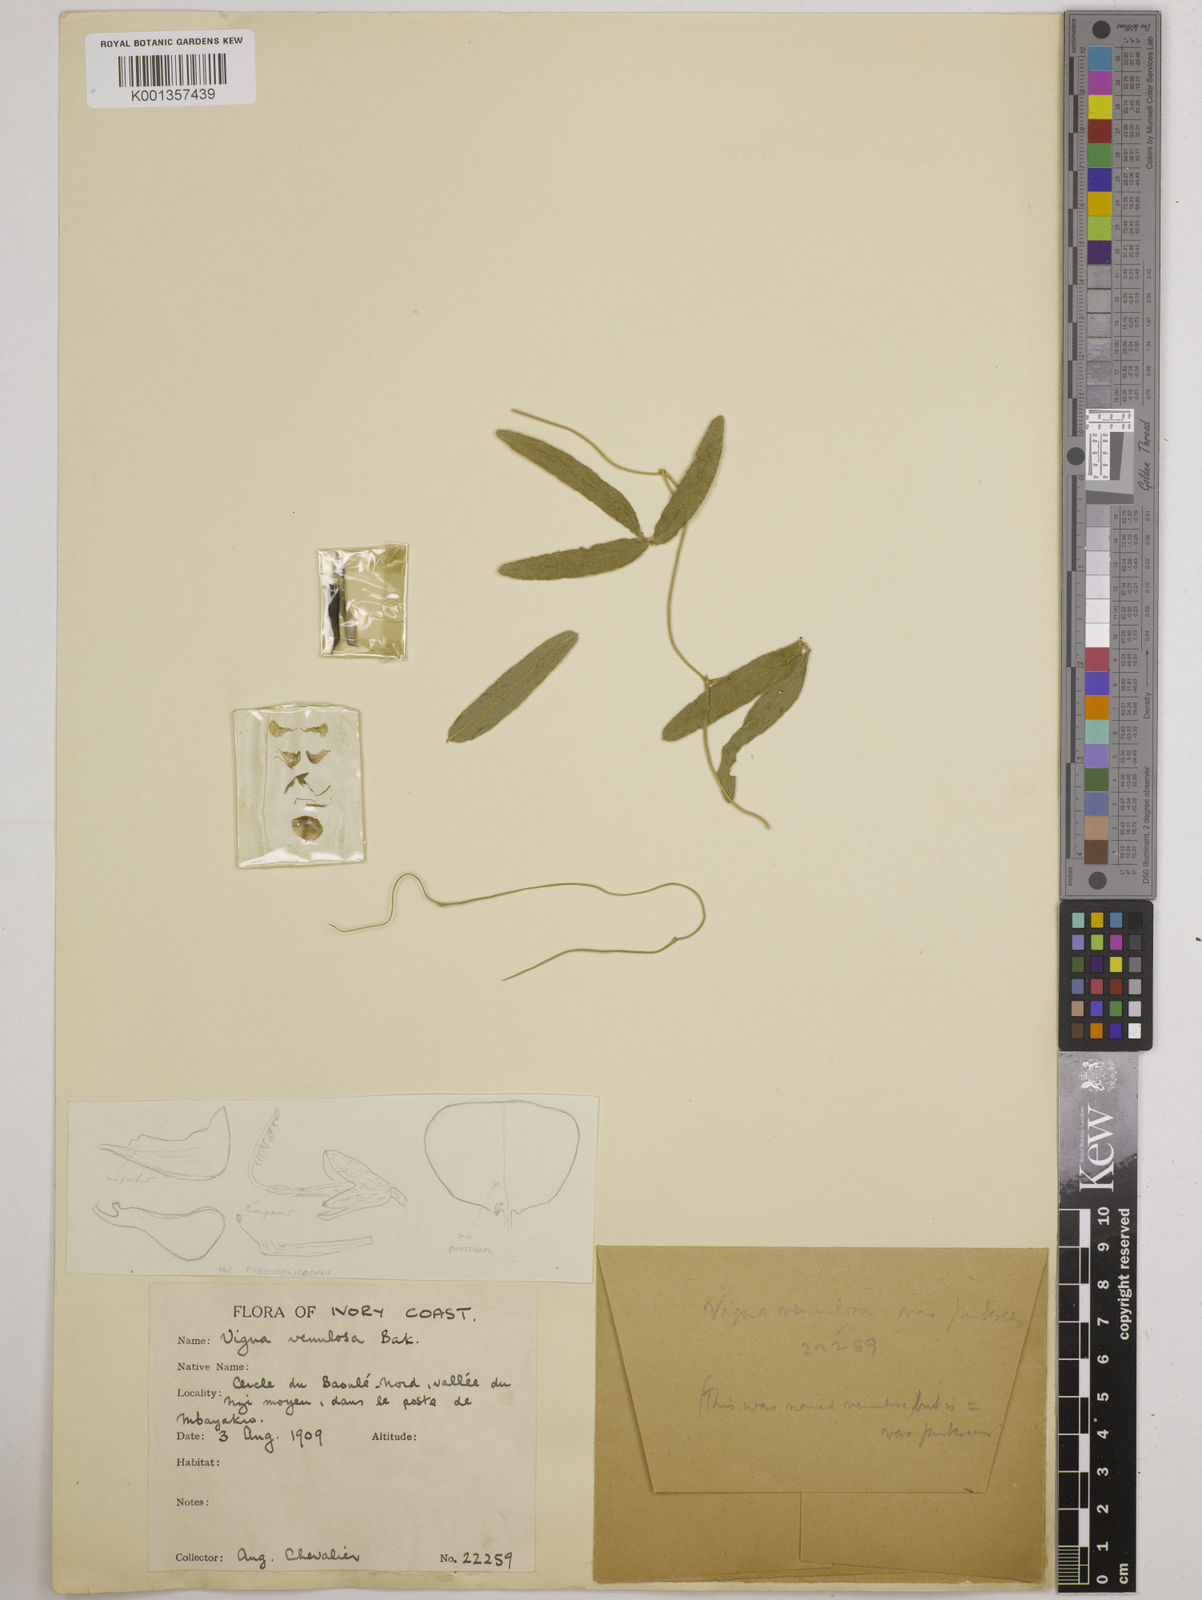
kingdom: Plantae
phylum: Tracheophyta
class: Magnoliopsida
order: Fabales
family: Fabaceae
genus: Vigna
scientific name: Vigna filicaulis
